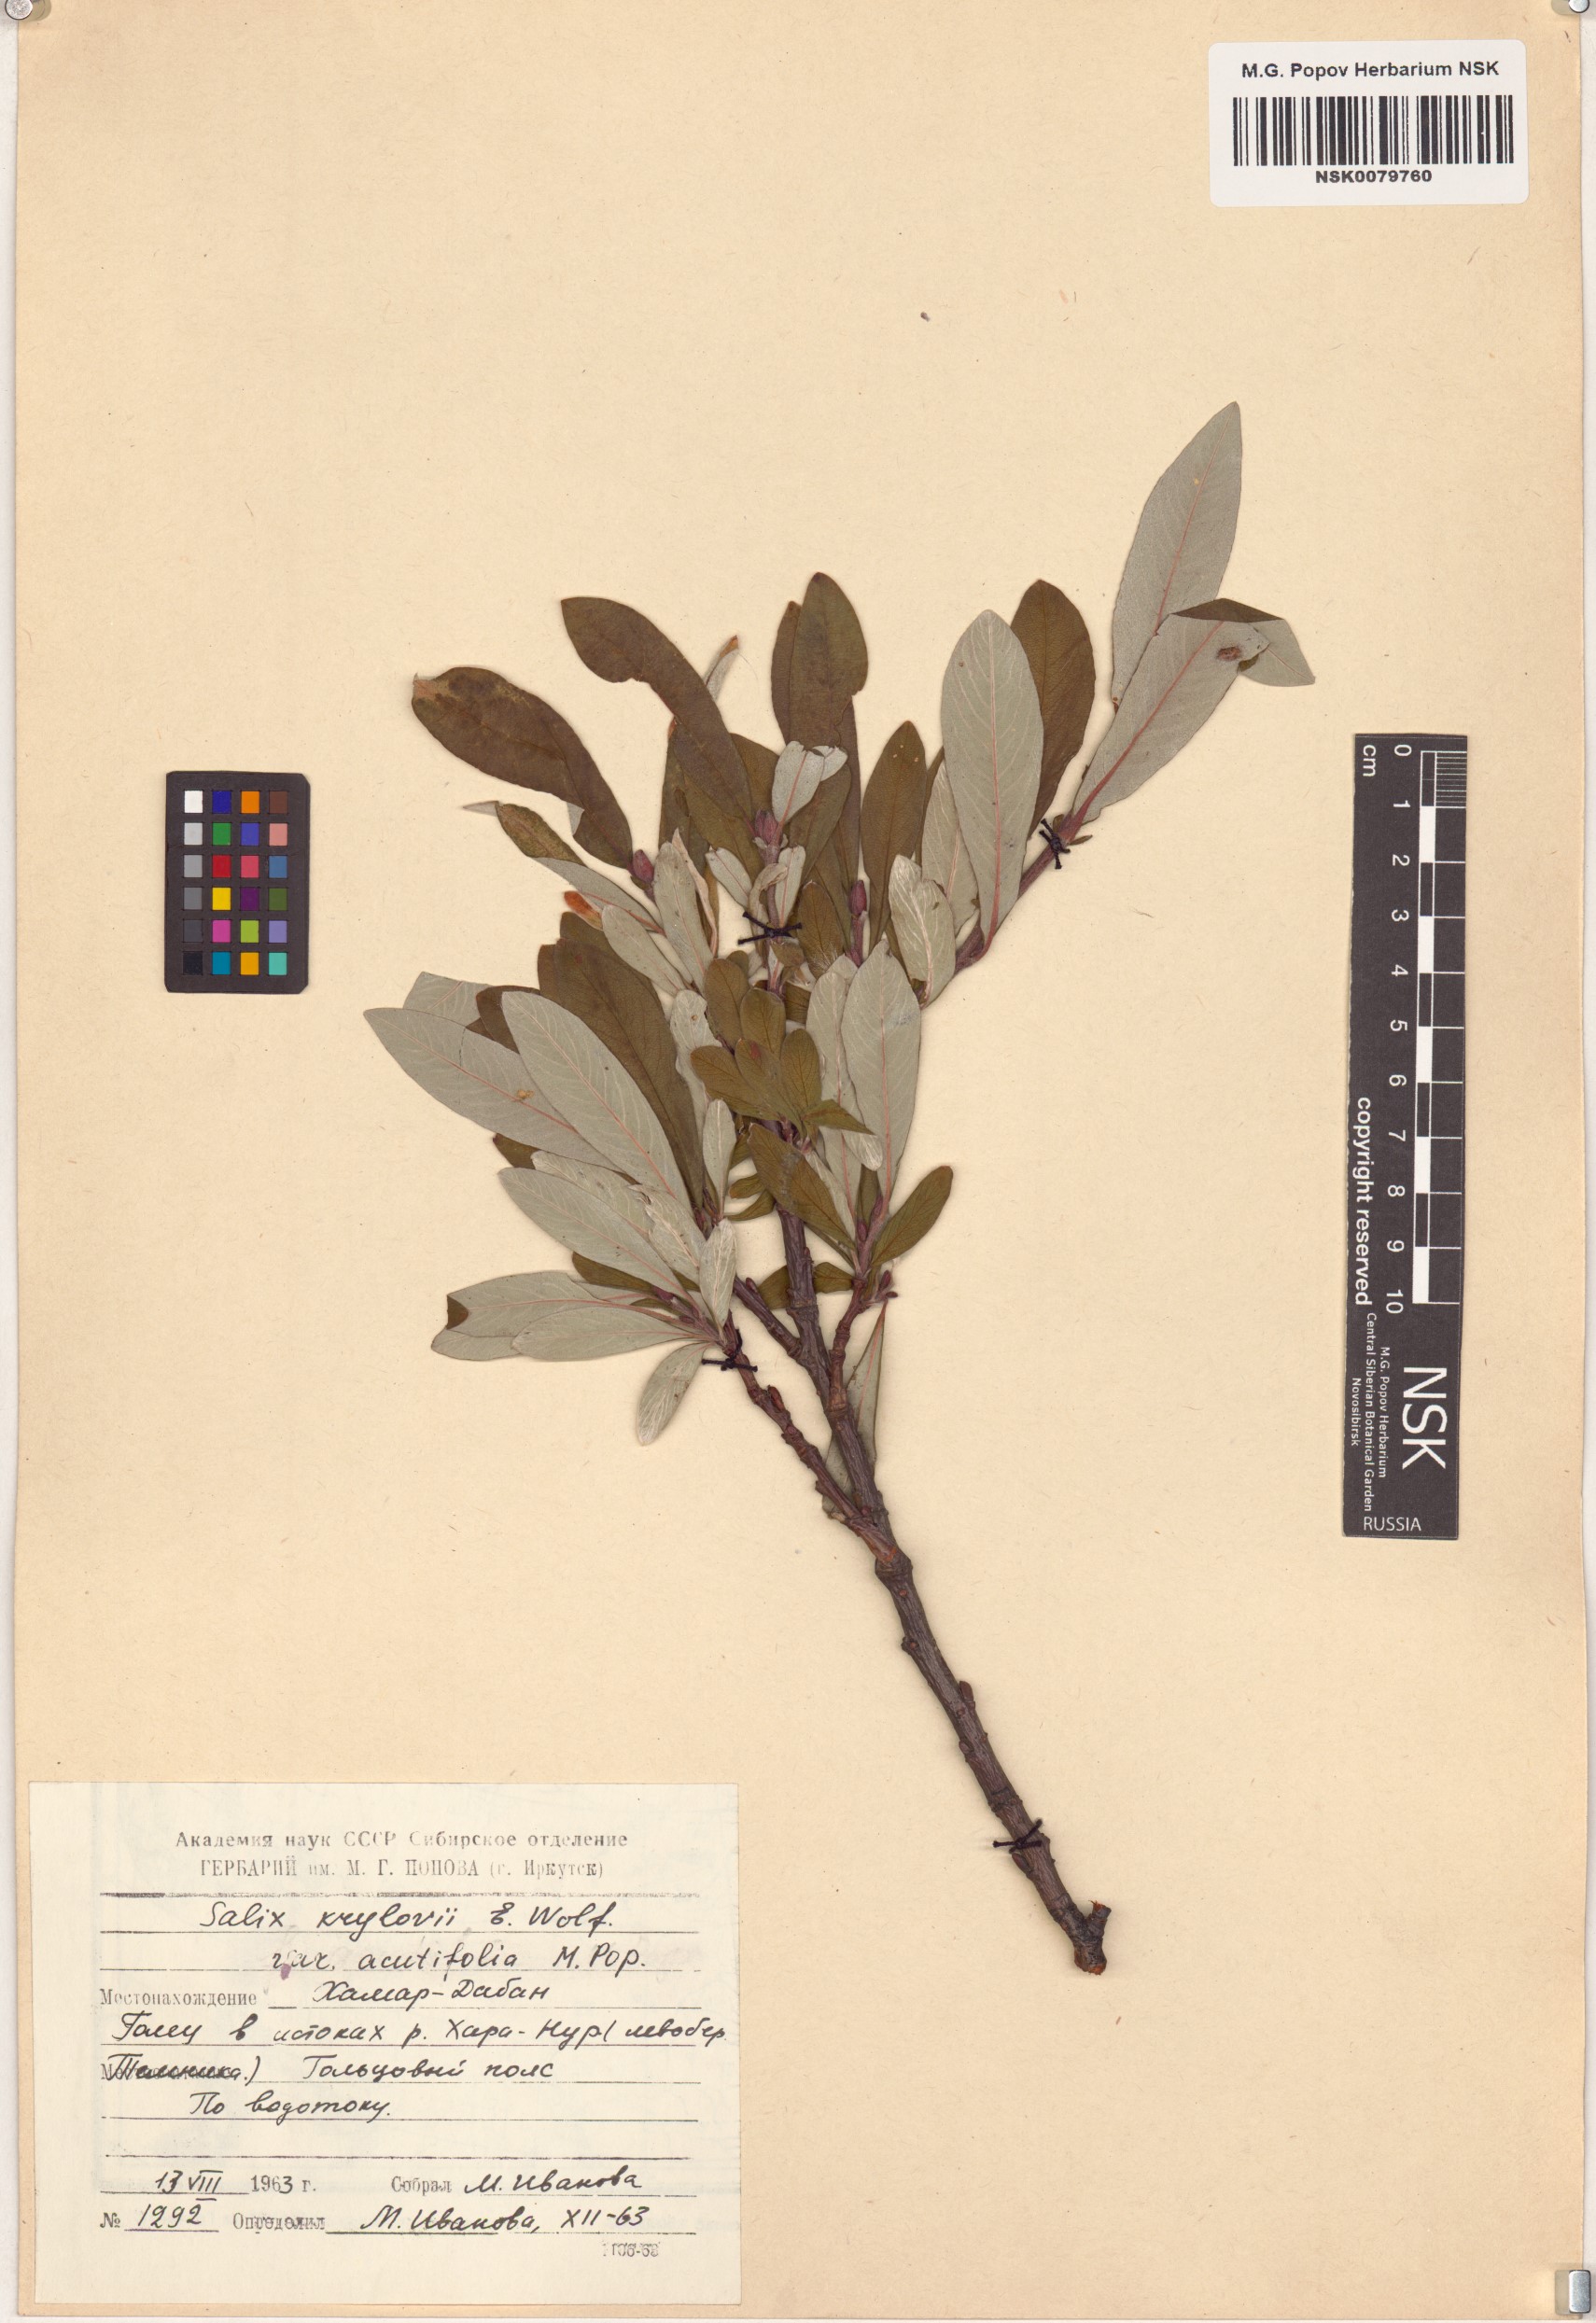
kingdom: Plantae
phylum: Tracheophyta
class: Magnoliopsida
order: Malpighiales
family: Salicaceae
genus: Salix
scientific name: Salix krylovii
